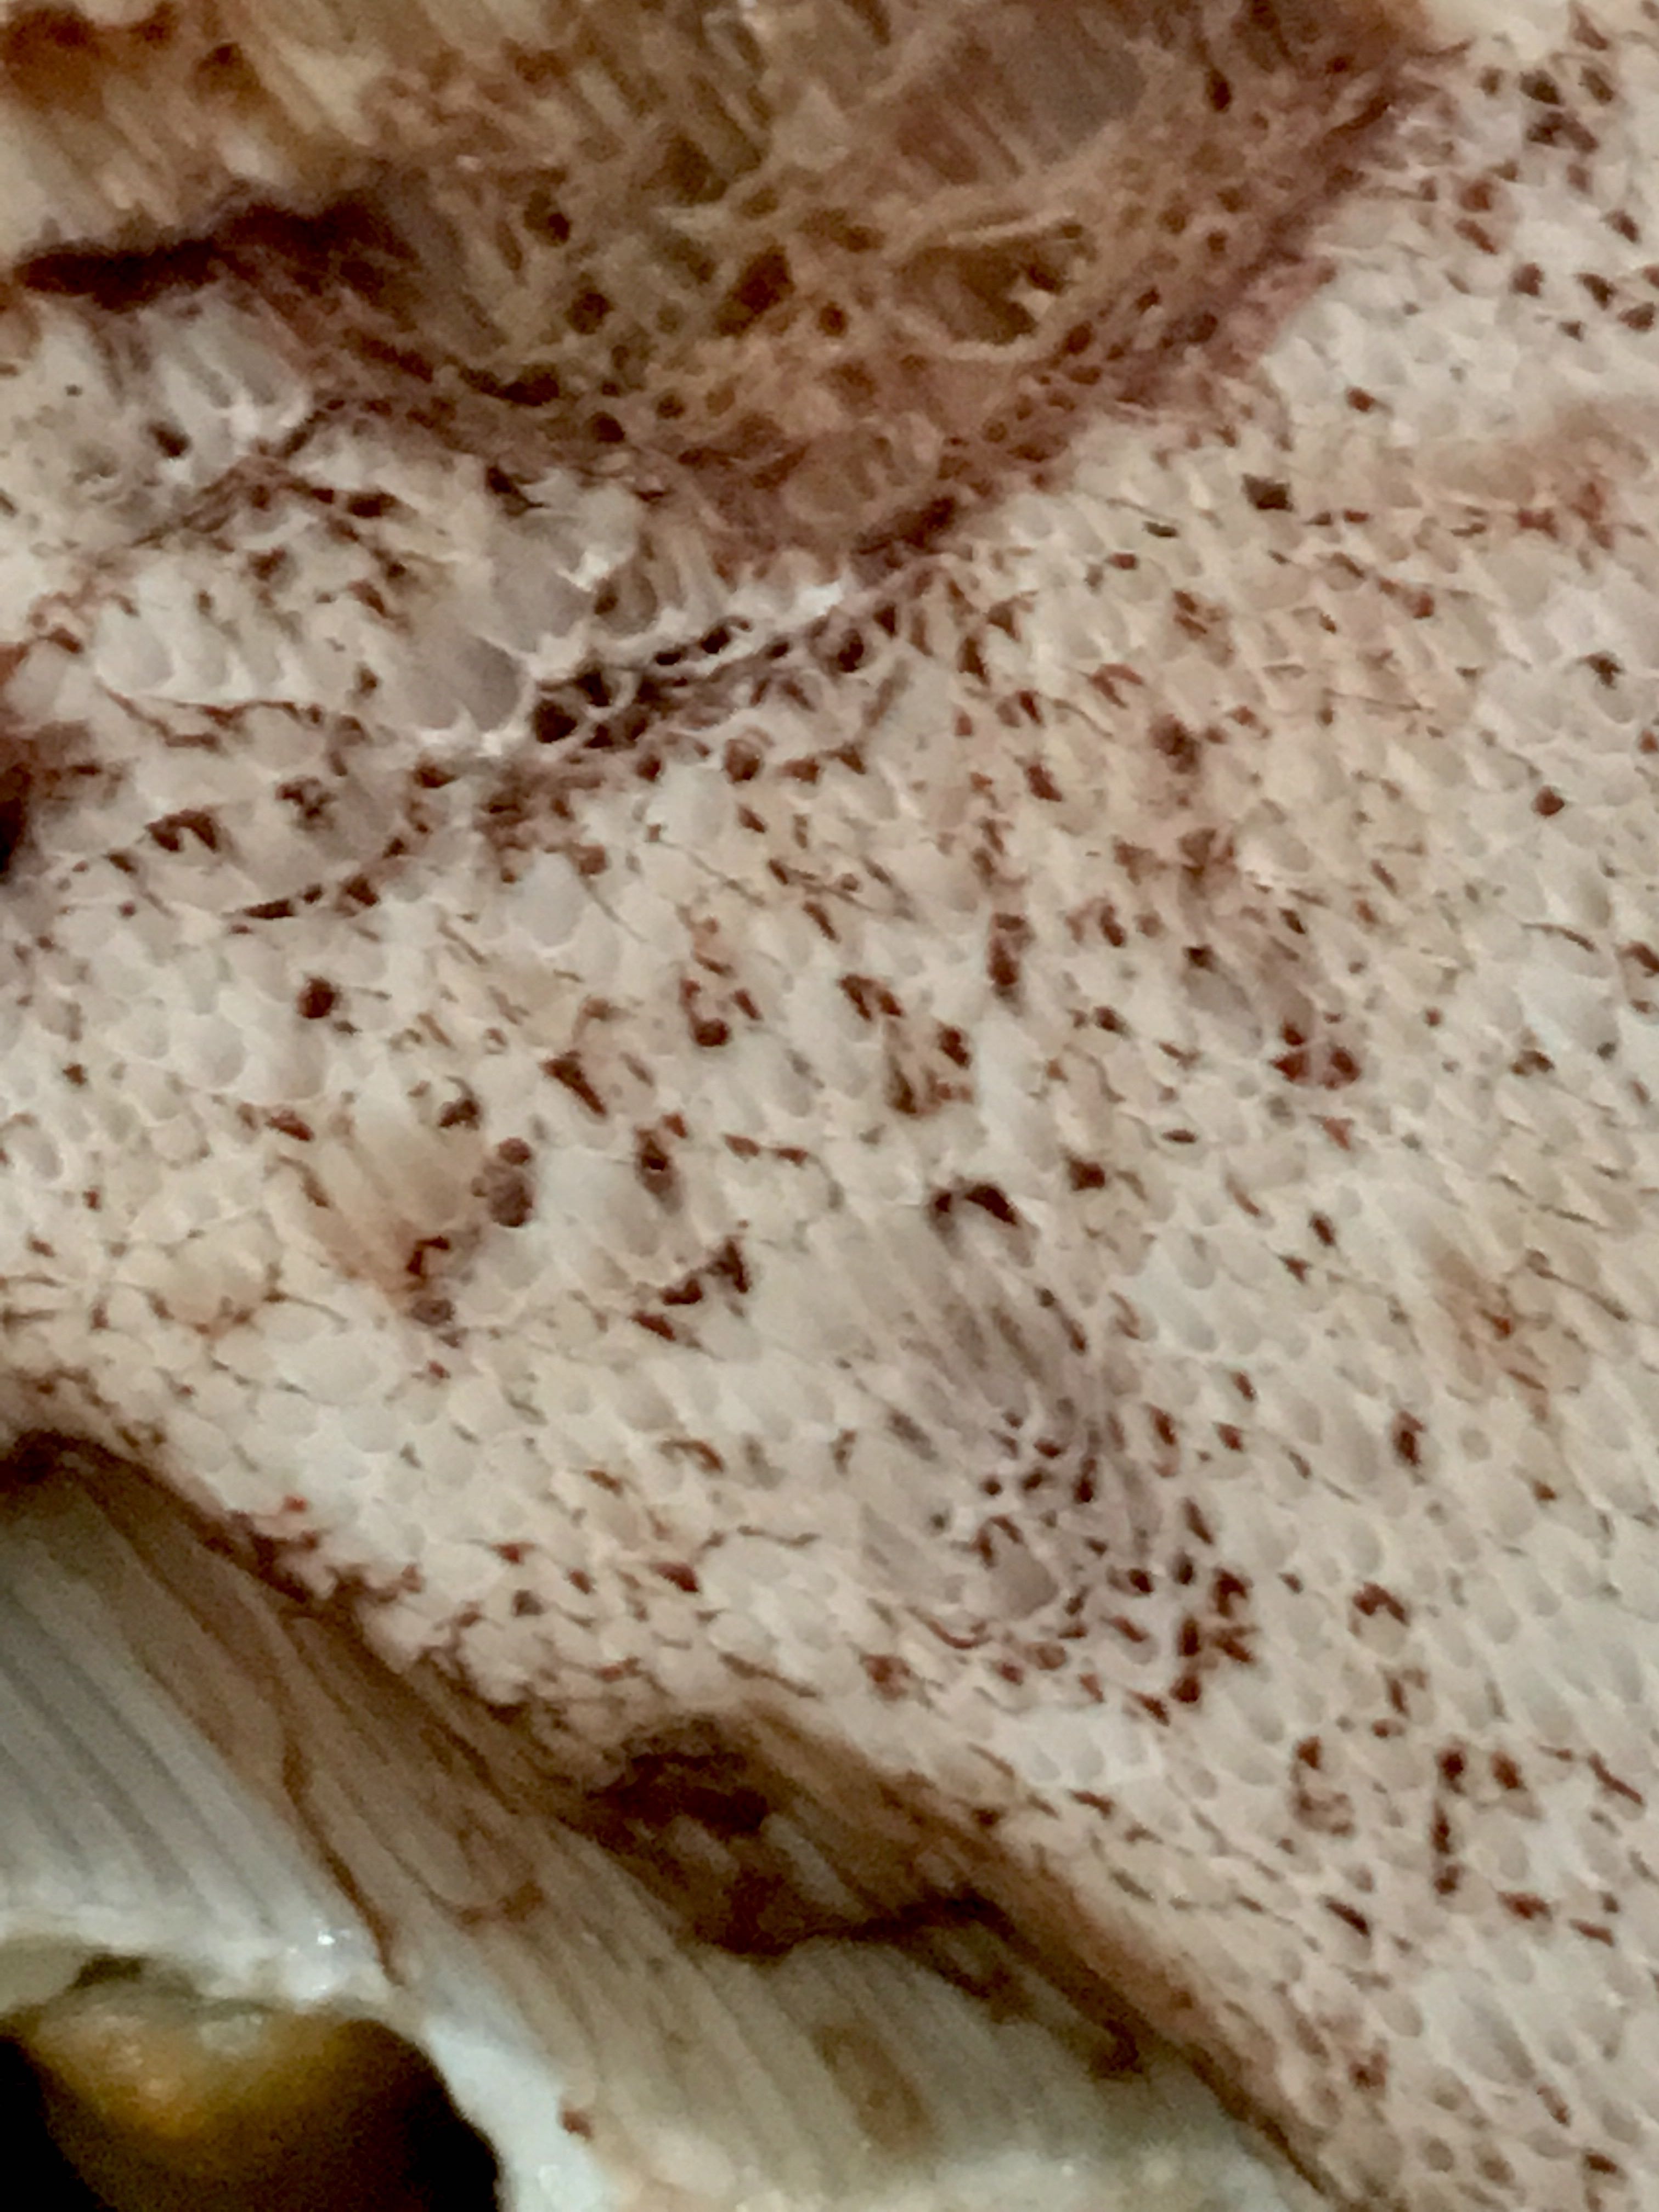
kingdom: Fungi
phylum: Basidiomycota
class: Agaricomycetes
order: Boletales
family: Boletaceae
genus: Tylopilus
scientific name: Tylopilus felleus
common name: galderørhat
